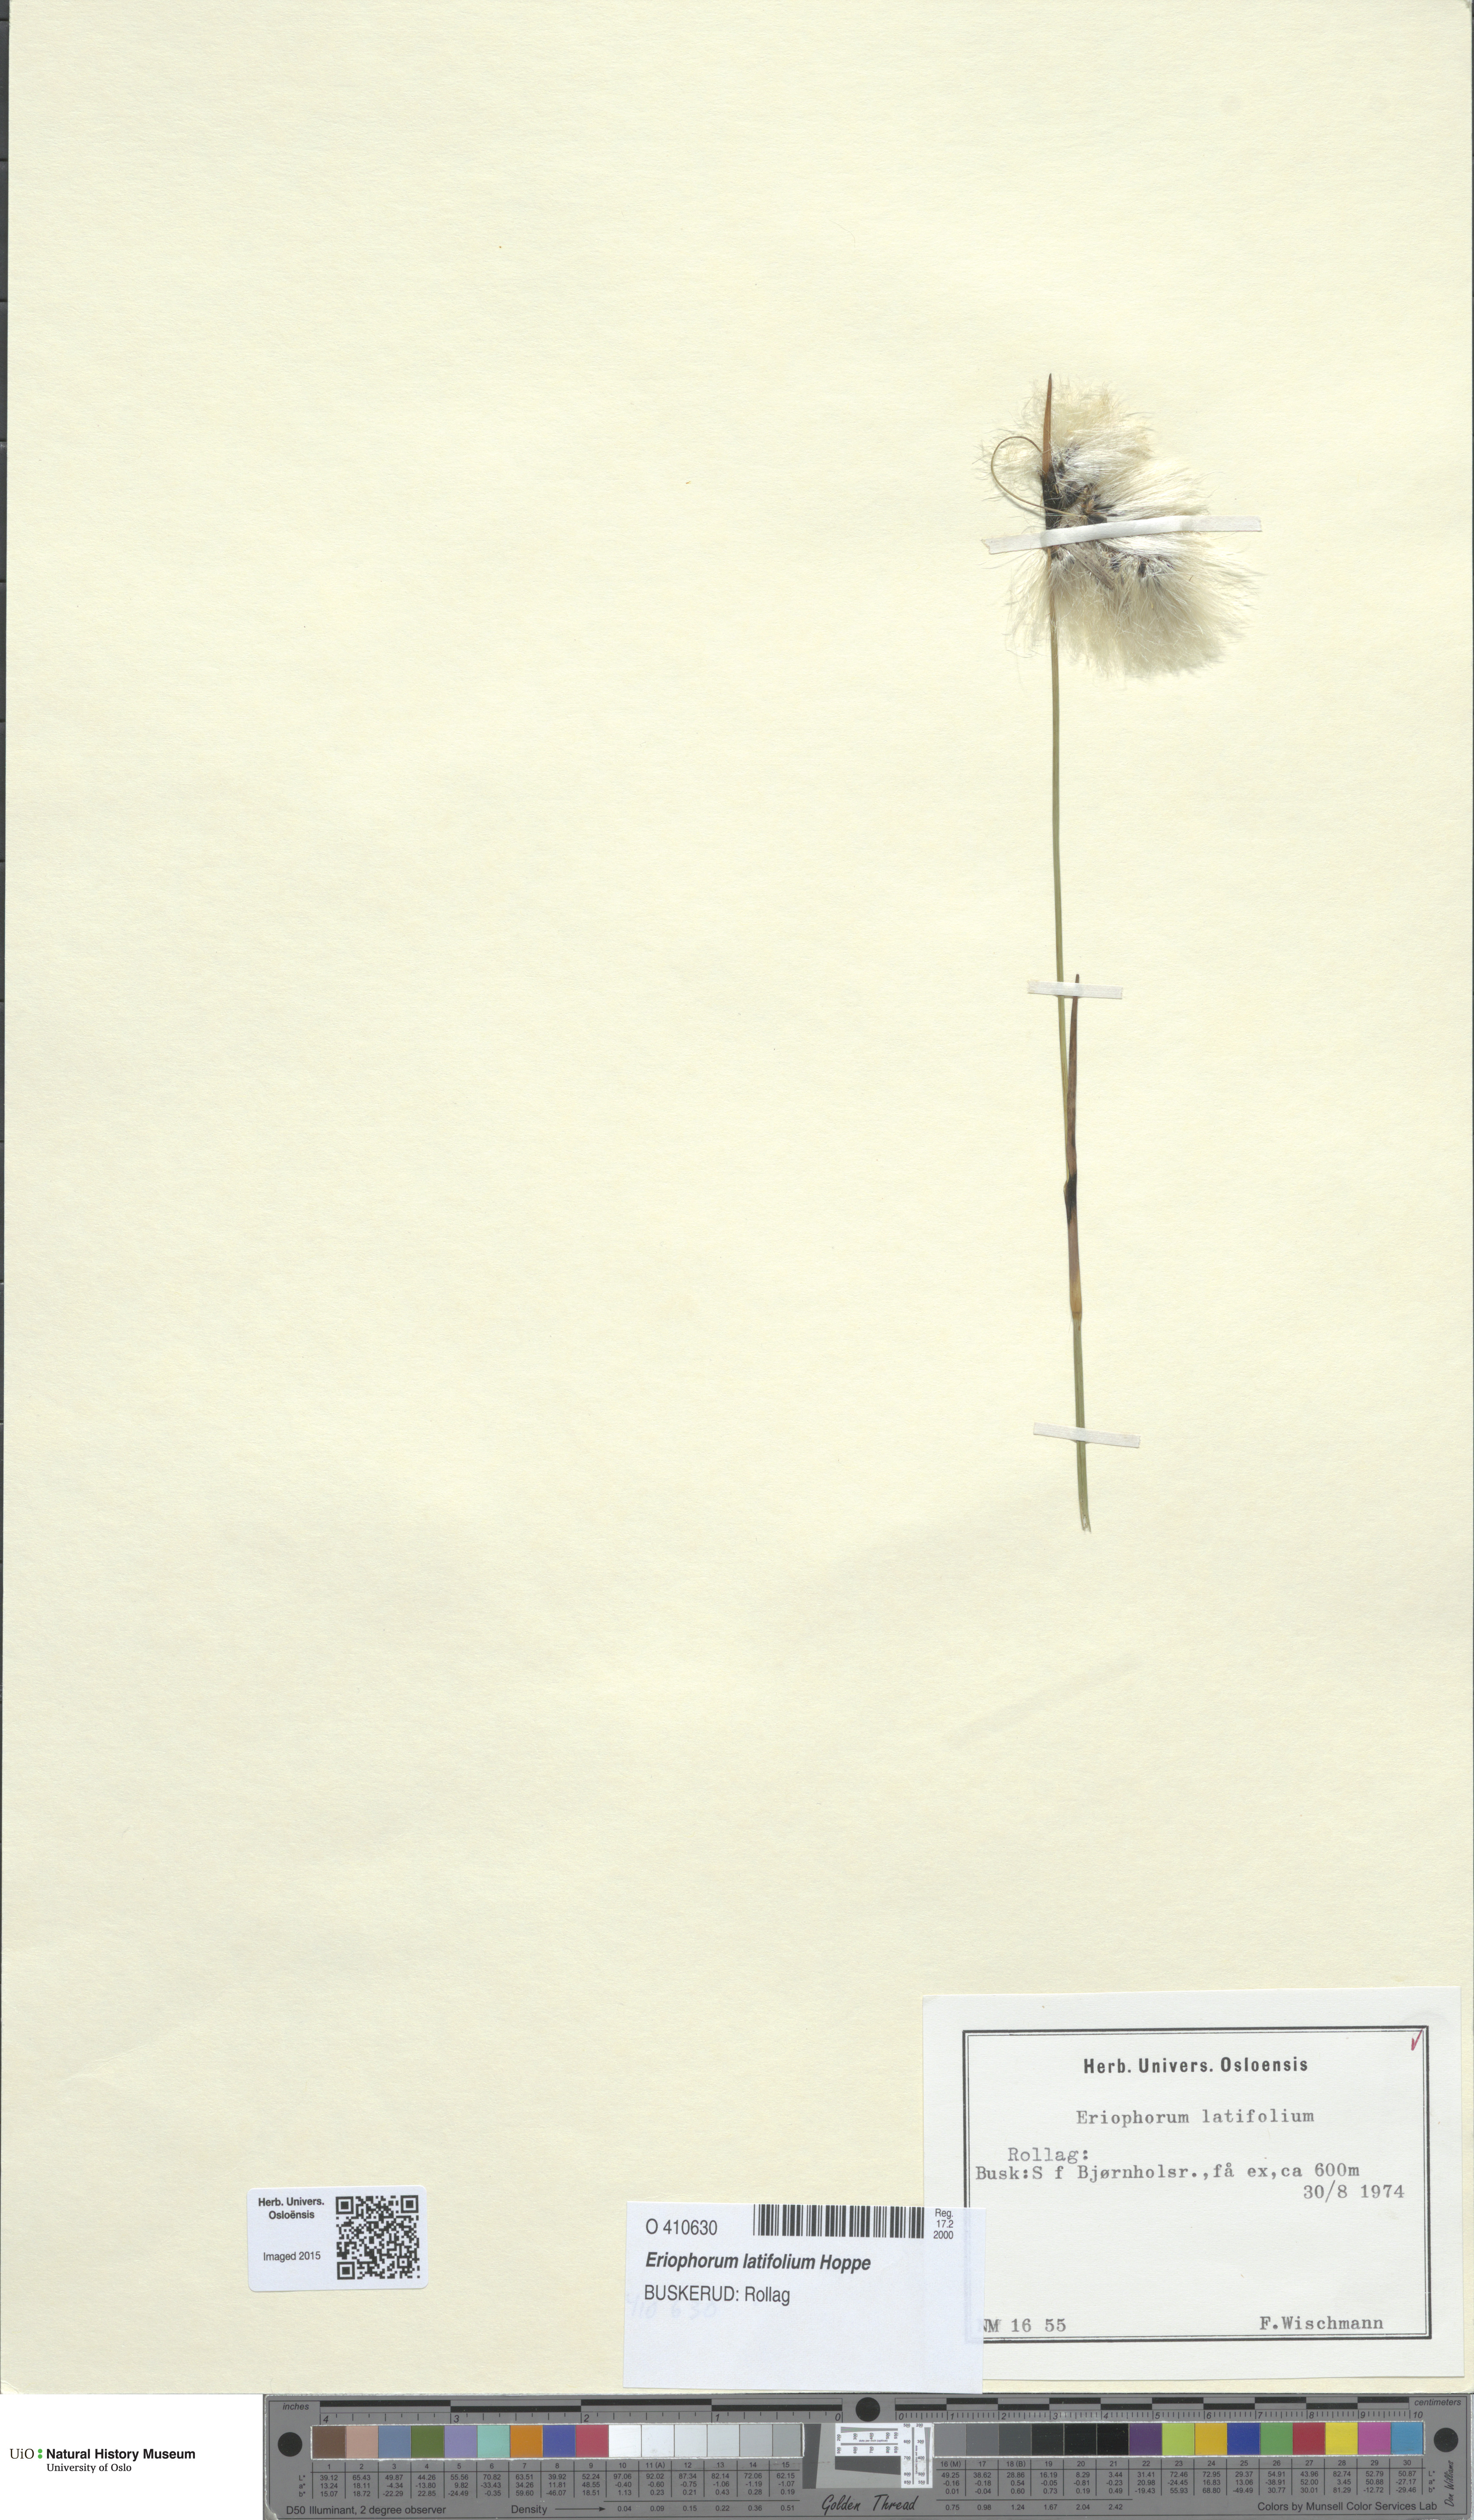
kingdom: Plantae
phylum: Tracheophyta
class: Liliopsida
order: Poales
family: Cyperaceae
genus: Eriophorum
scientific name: Eriophorum latifolium
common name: Broad-leaved cottongrass
